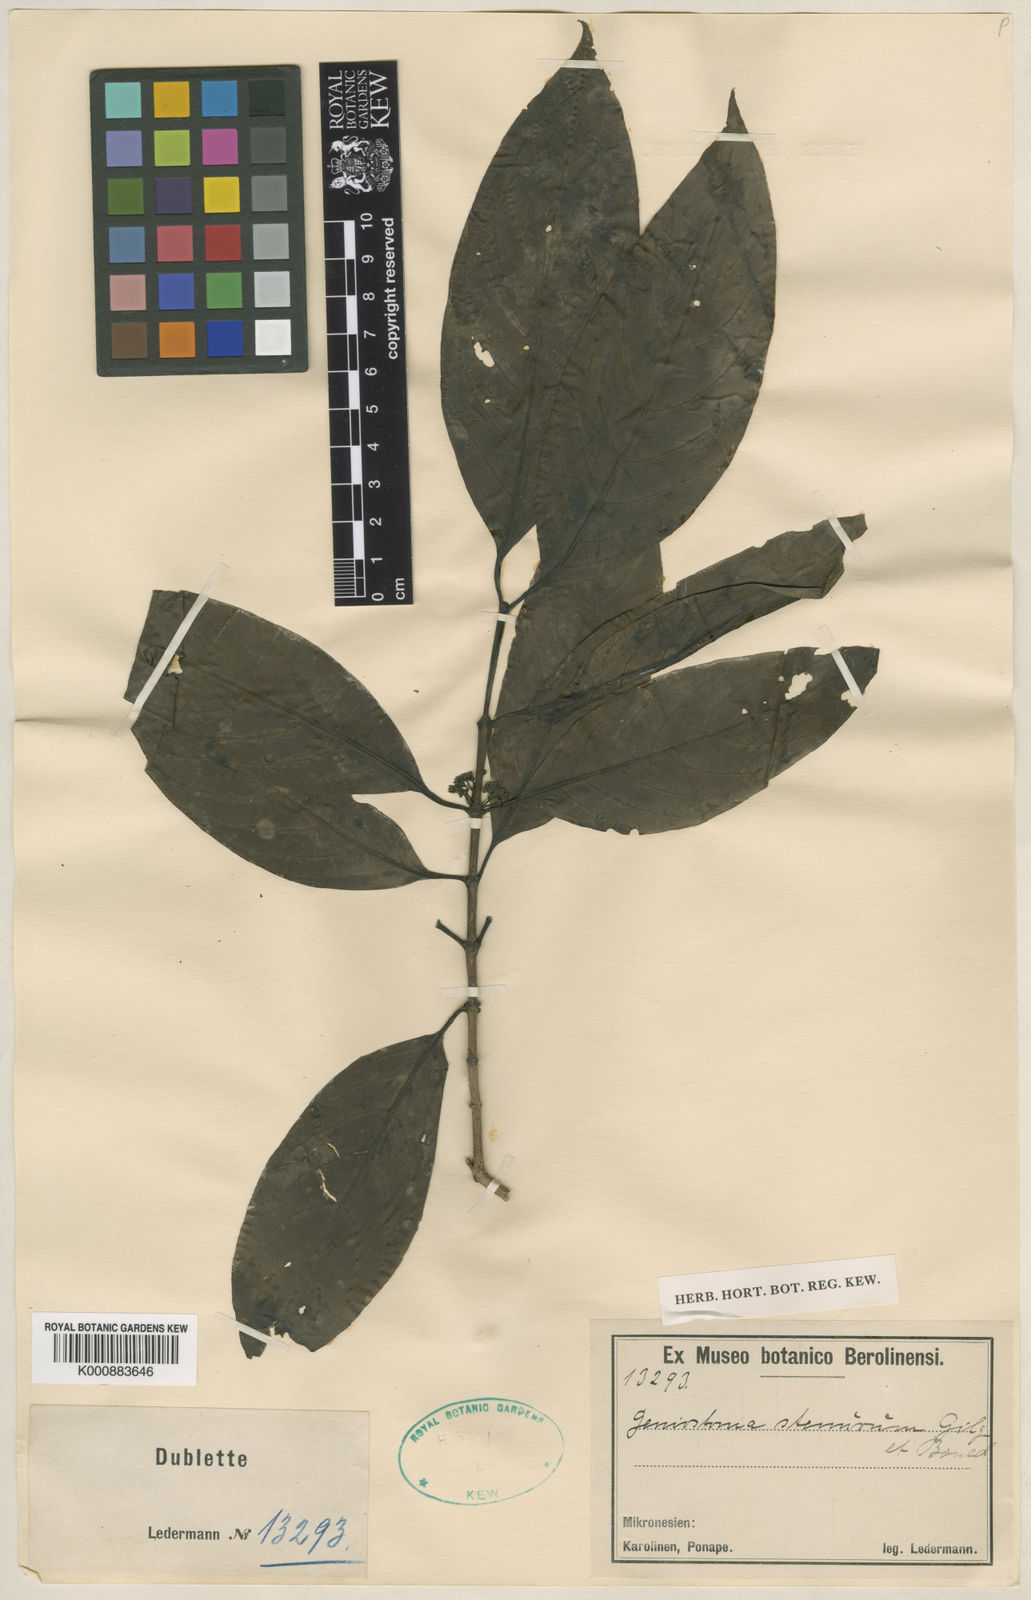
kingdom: Plantae
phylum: Tracheophyta
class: Magnoliopsida
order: Gentianales
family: Loganiaceae
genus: Geniostoma
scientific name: Geniostoma rupestre
